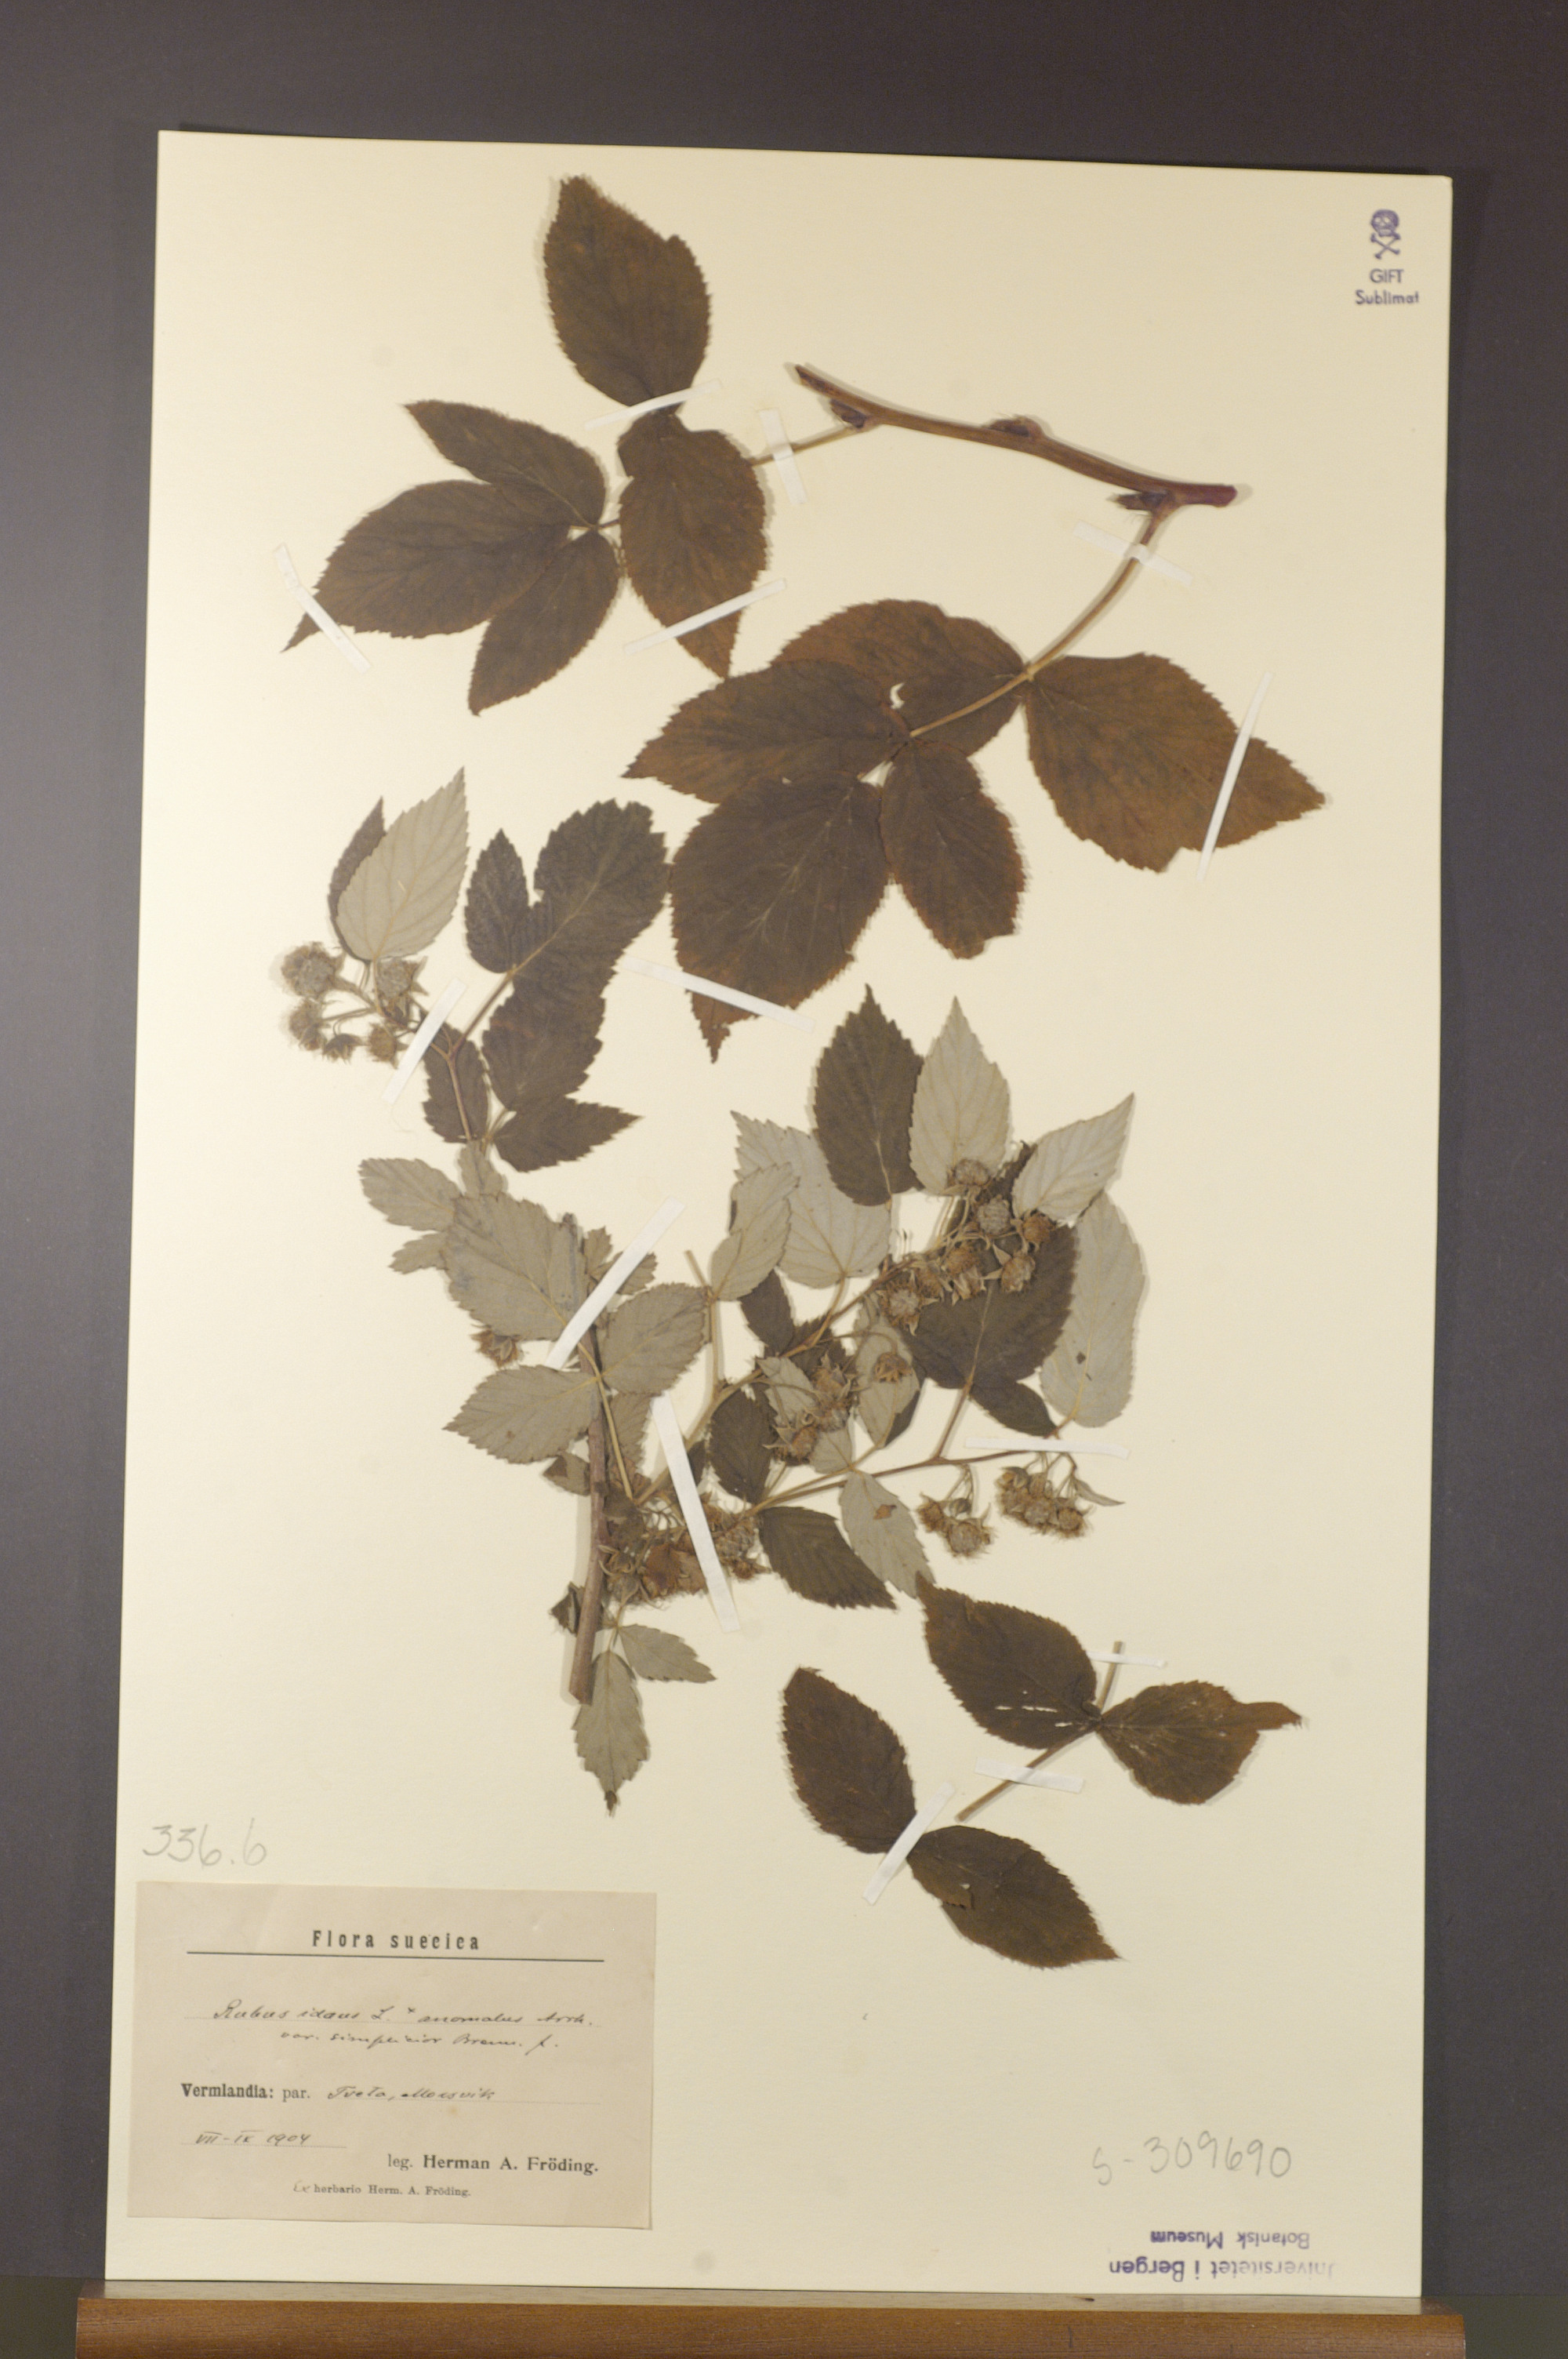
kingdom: Plantae
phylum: Tracheophyta
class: Magnoliopsida
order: Rosales
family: Rosaceae
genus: Rubus
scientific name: Rubus idaeus
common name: Raspberry
